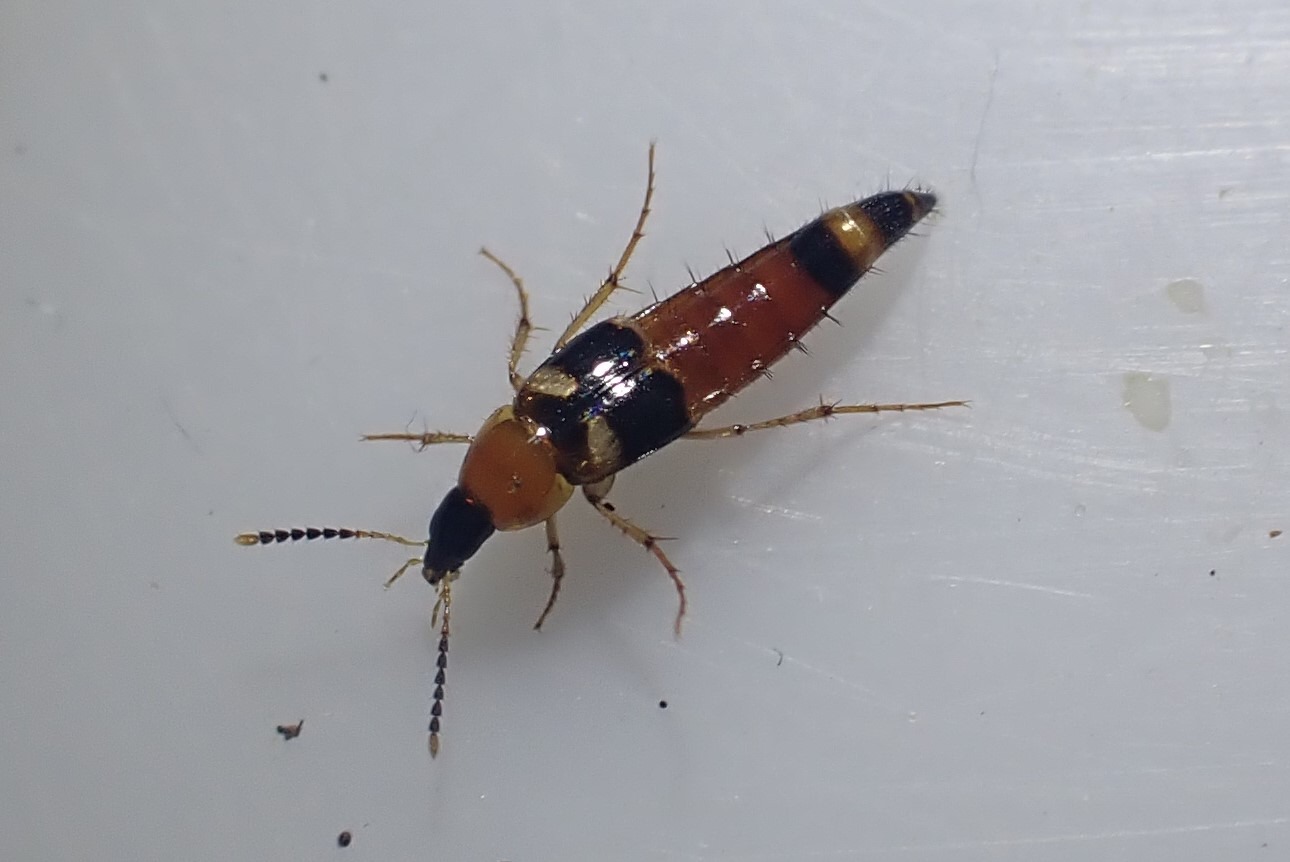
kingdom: Animalia
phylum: Arthropoda
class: Insecta
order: Coleoptera
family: Staphylinidae
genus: Bobitobus
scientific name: Bobitobus lunulatus
